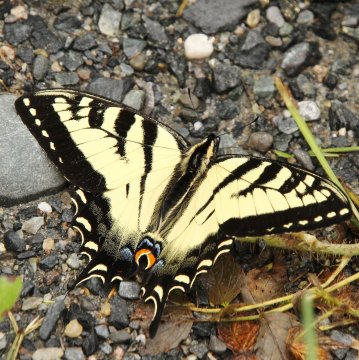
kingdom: Animalia
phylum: Arthropoda
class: Insecta
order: Lepidoptera
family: Papilionidae
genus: Pterourus
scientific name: Pterourus
